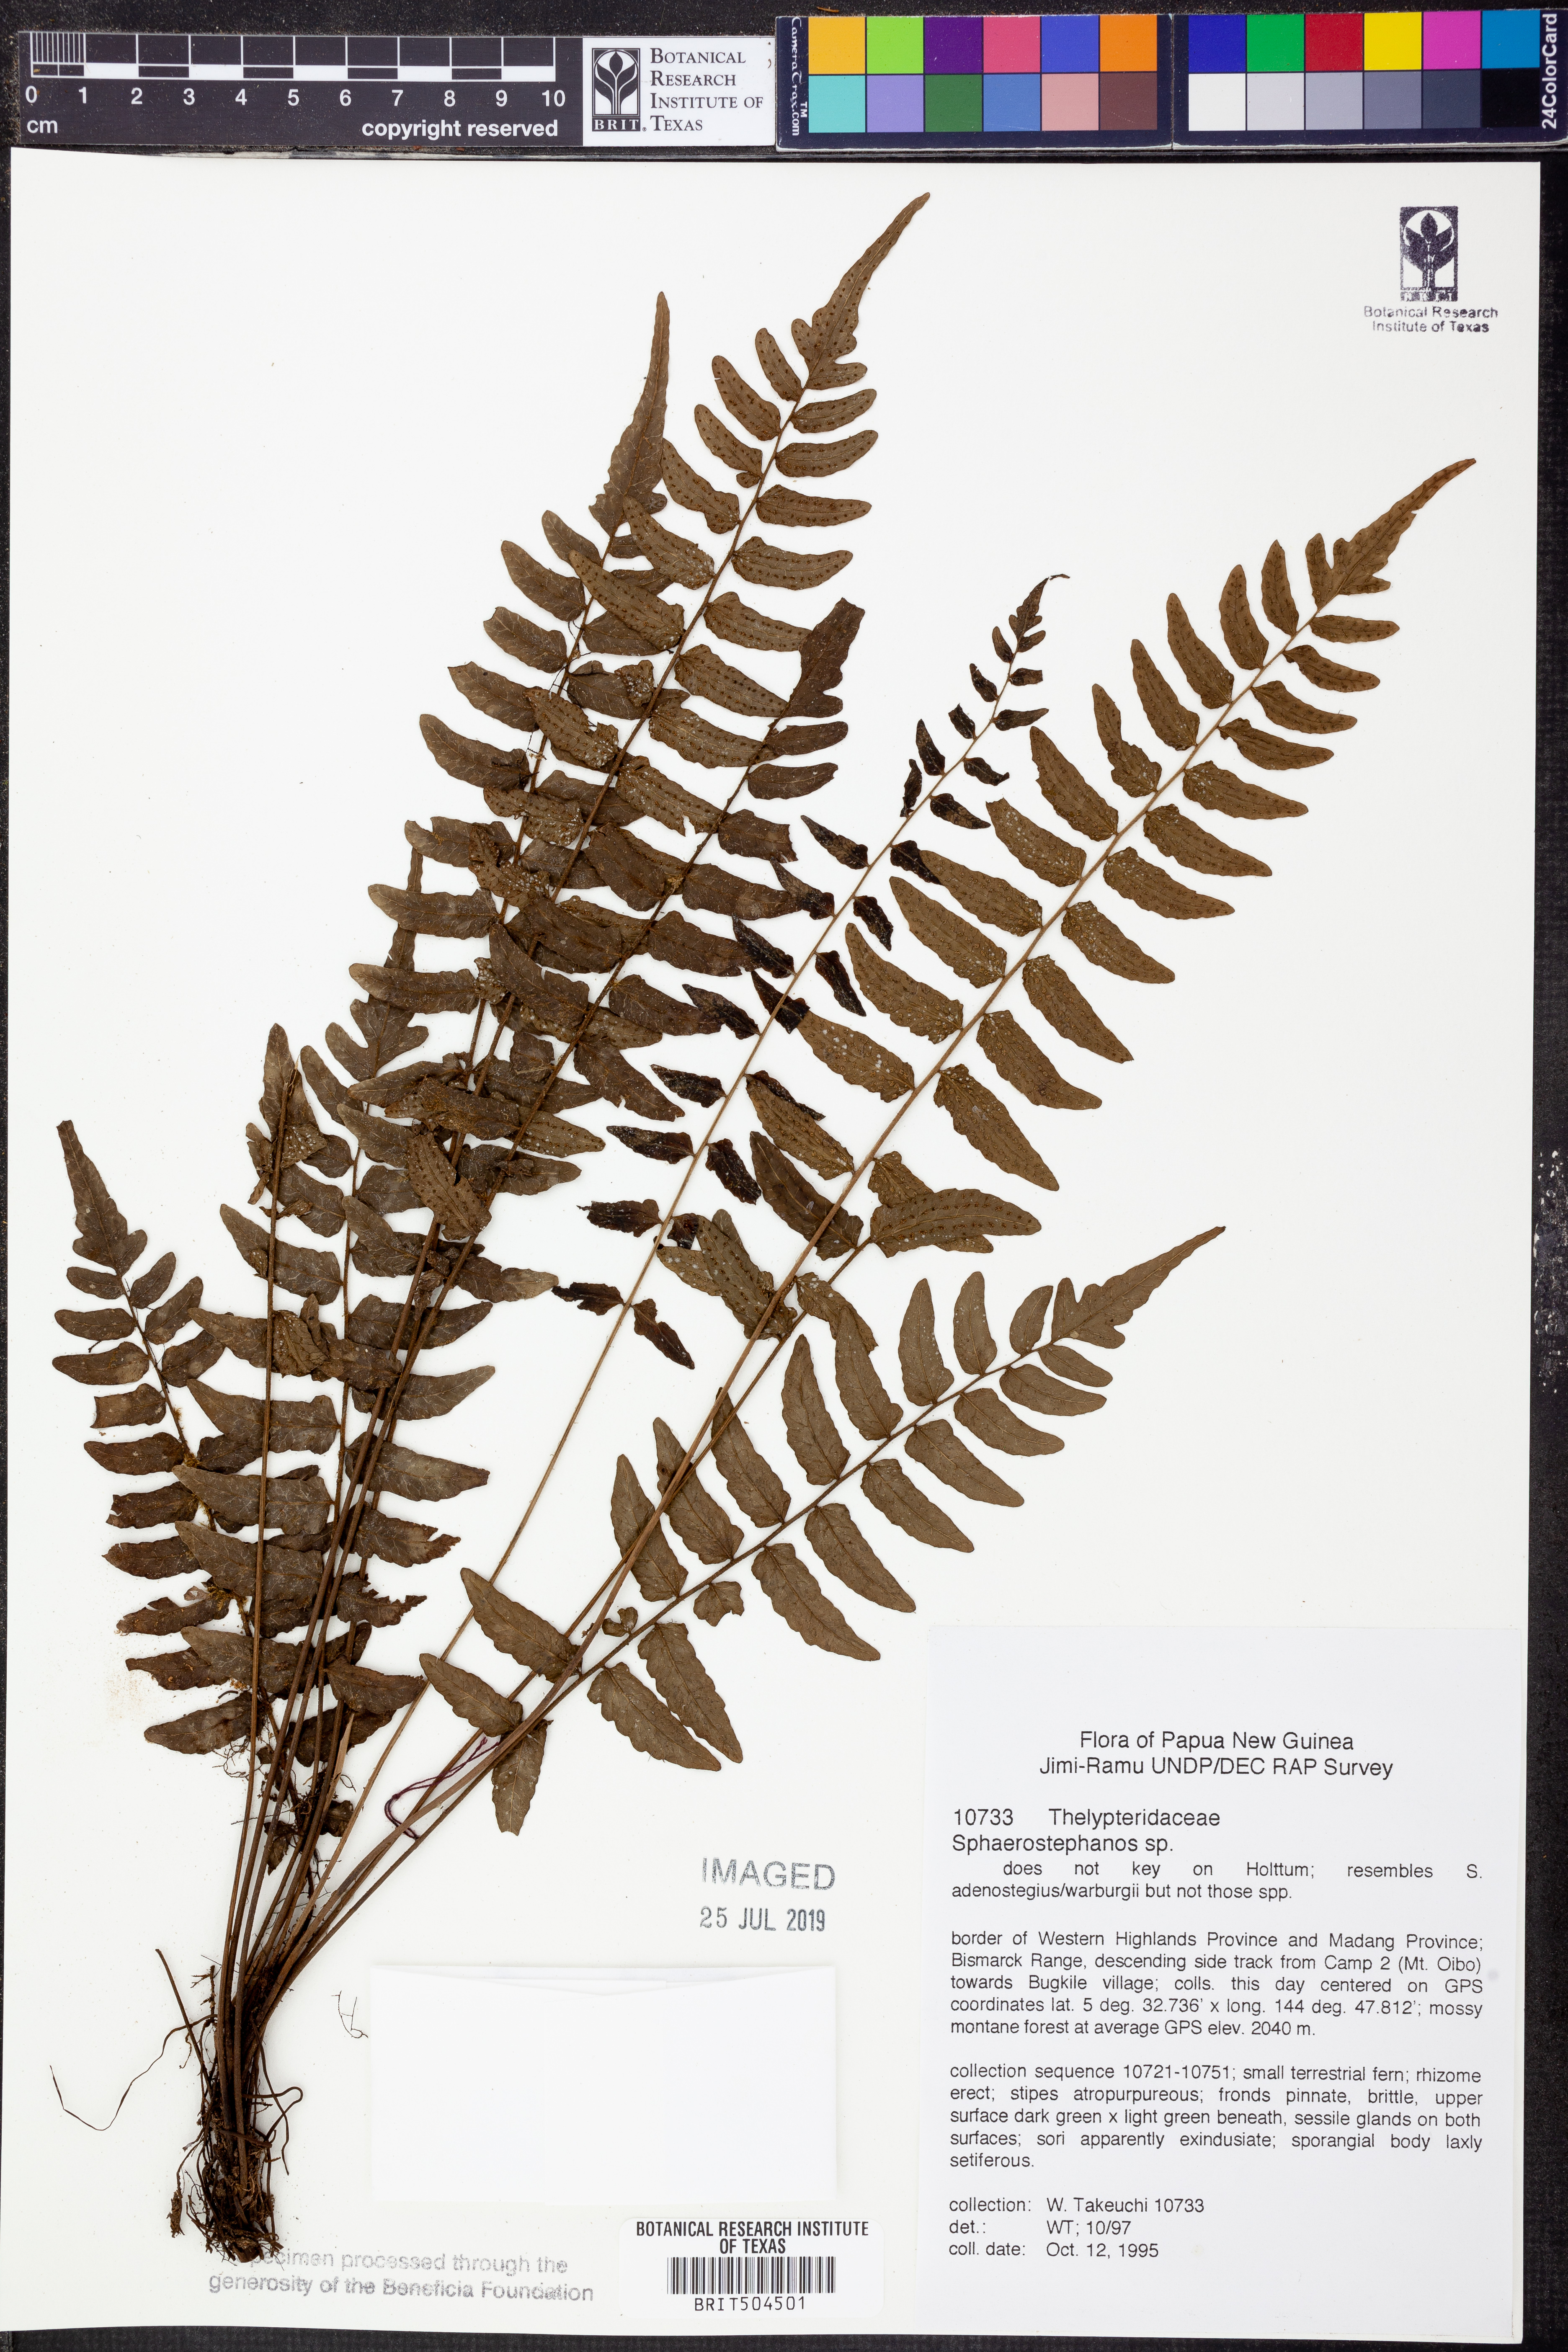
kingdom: Plantae
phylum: Tracheophyta
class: Polypodiopsida
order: Polypodiales
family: Thelypteridaceae
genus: Sphaerostephanos
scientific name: Sphaerostephanos
